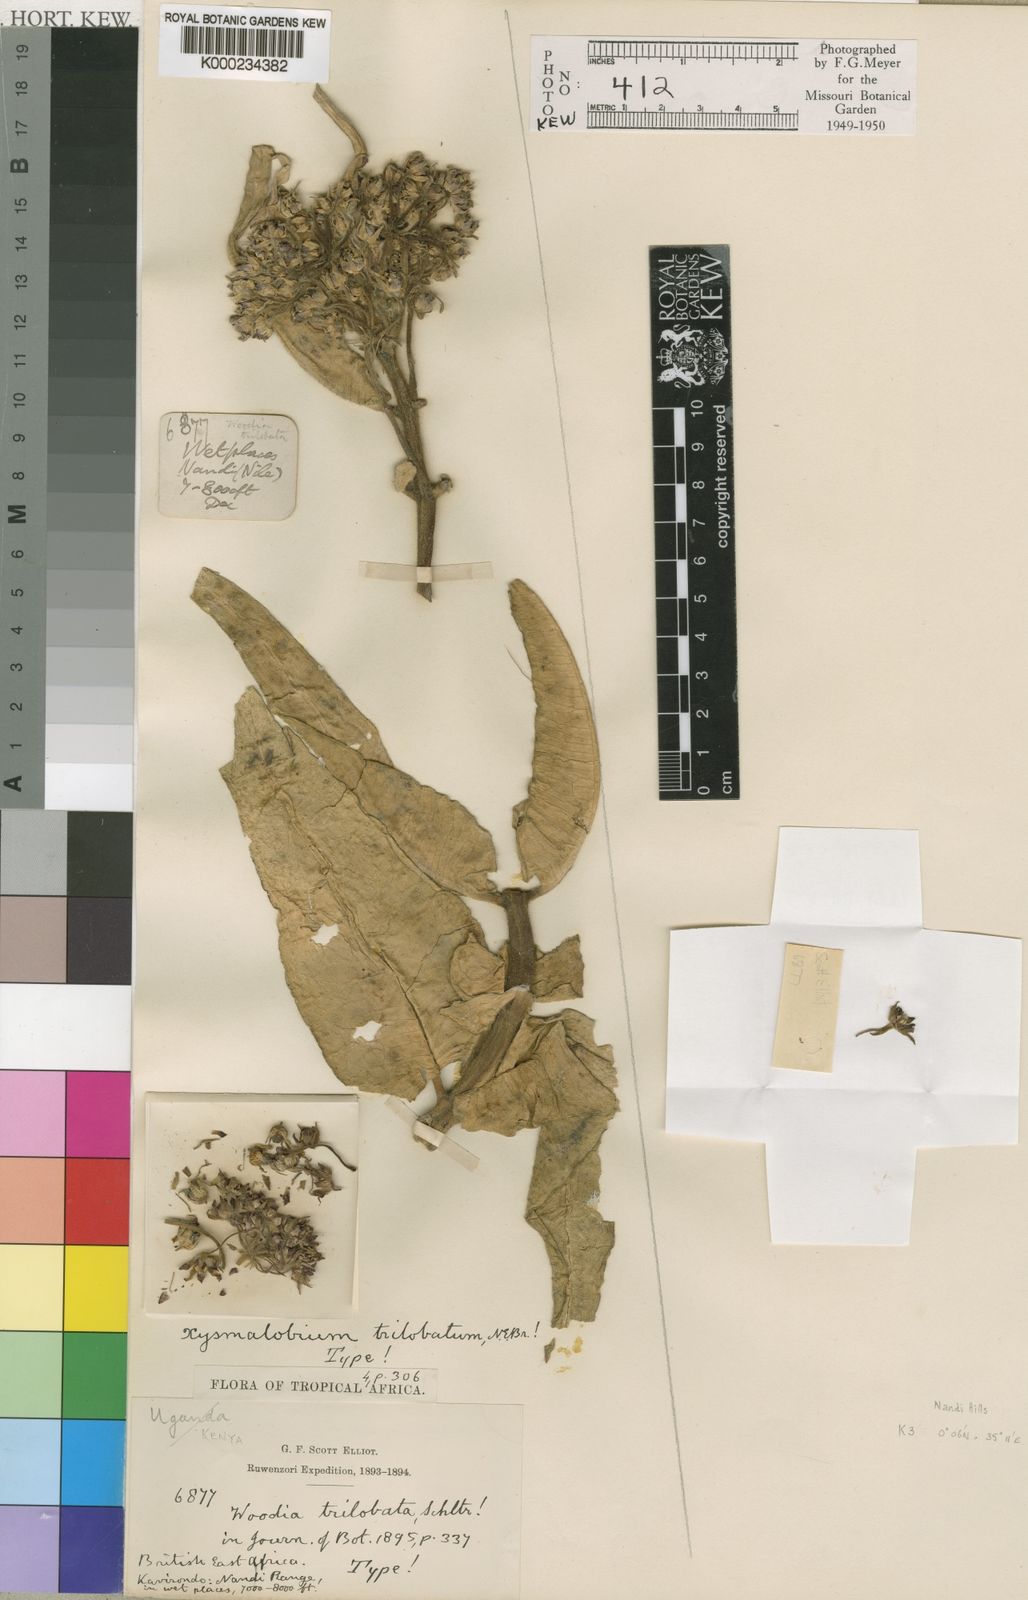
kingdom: Plantae
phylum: Tracheophyta
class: Magnoliopsida
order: Gentianales
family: Apocynaceae
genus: Xysmalobium
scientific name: Xysmalobium undulatum
